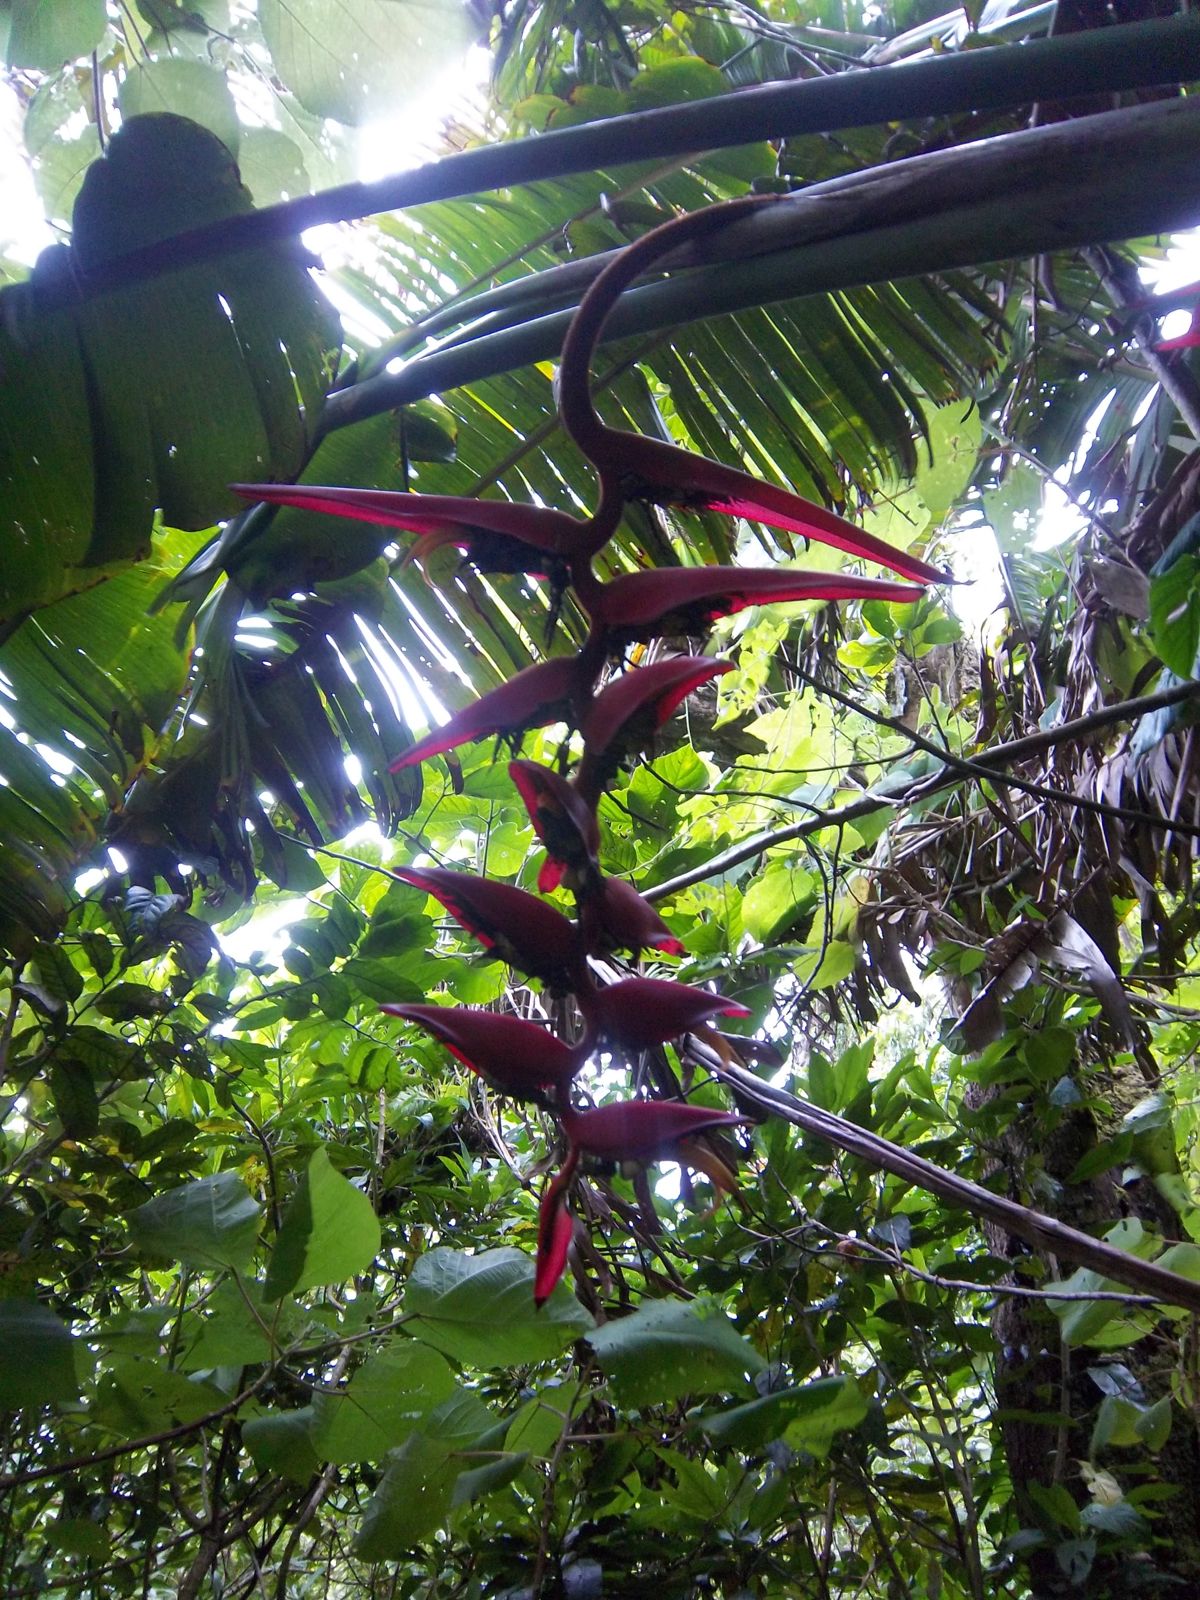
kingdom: Plantae
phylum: Tracheophyta
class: Liliopsida
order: Zingiberales
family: Heliconiaceae
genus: Heliconia
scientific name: Heliconia collinsiana
